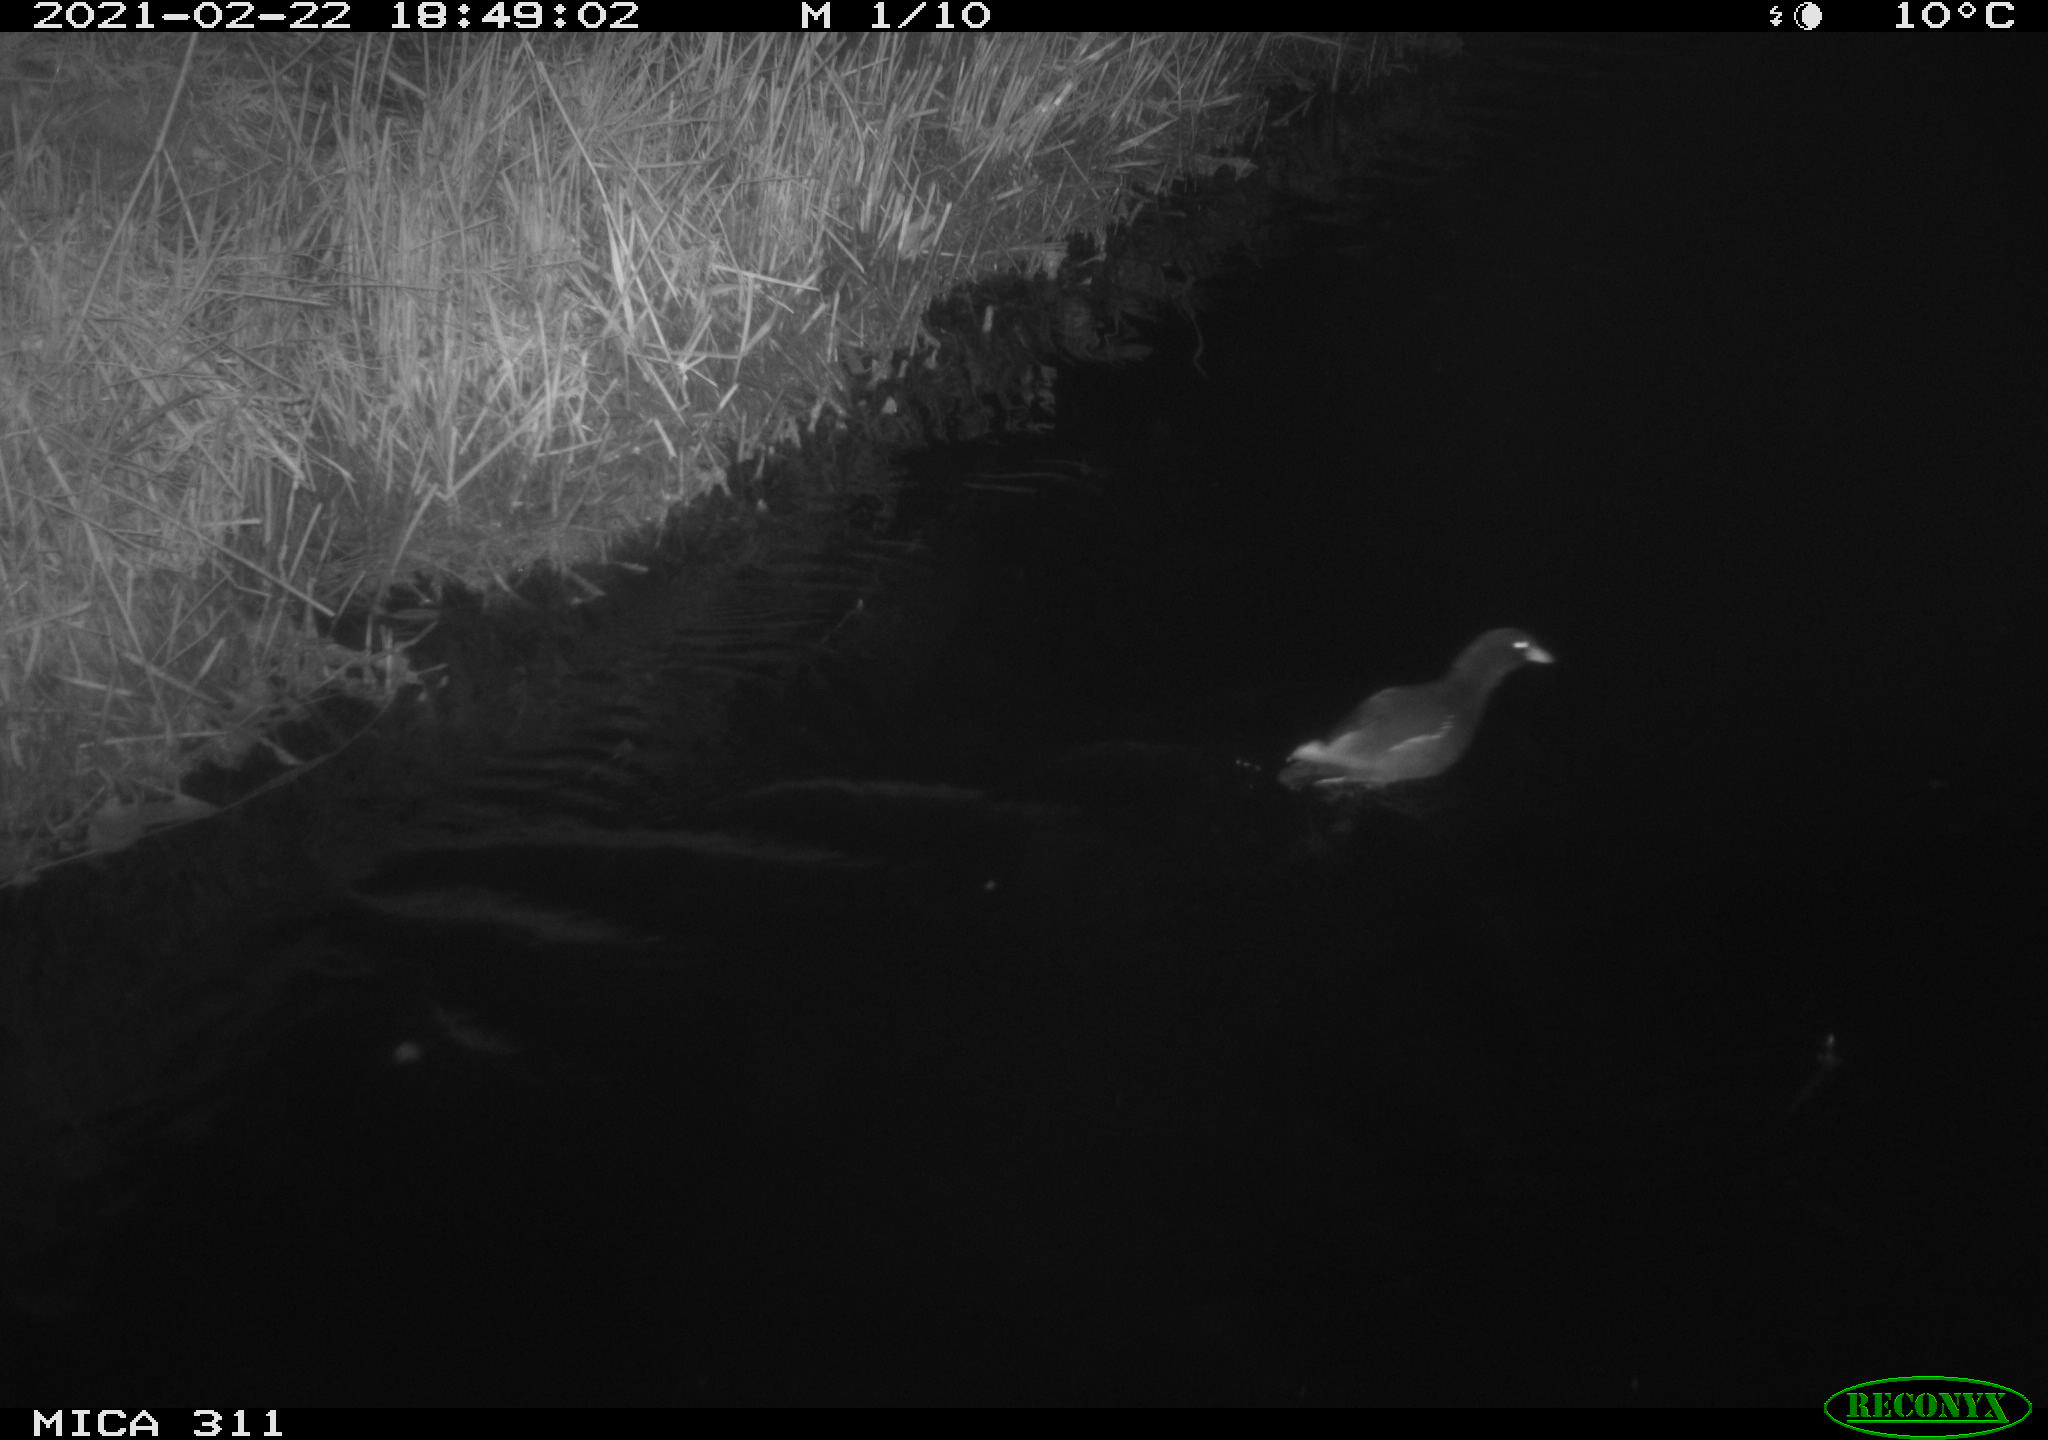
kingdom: Animalia
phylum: Chordata
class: Aves
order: Gruiformes
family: Rallidae
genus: Gallinula
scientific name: Gallinula chloropus
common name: Common moorhen
